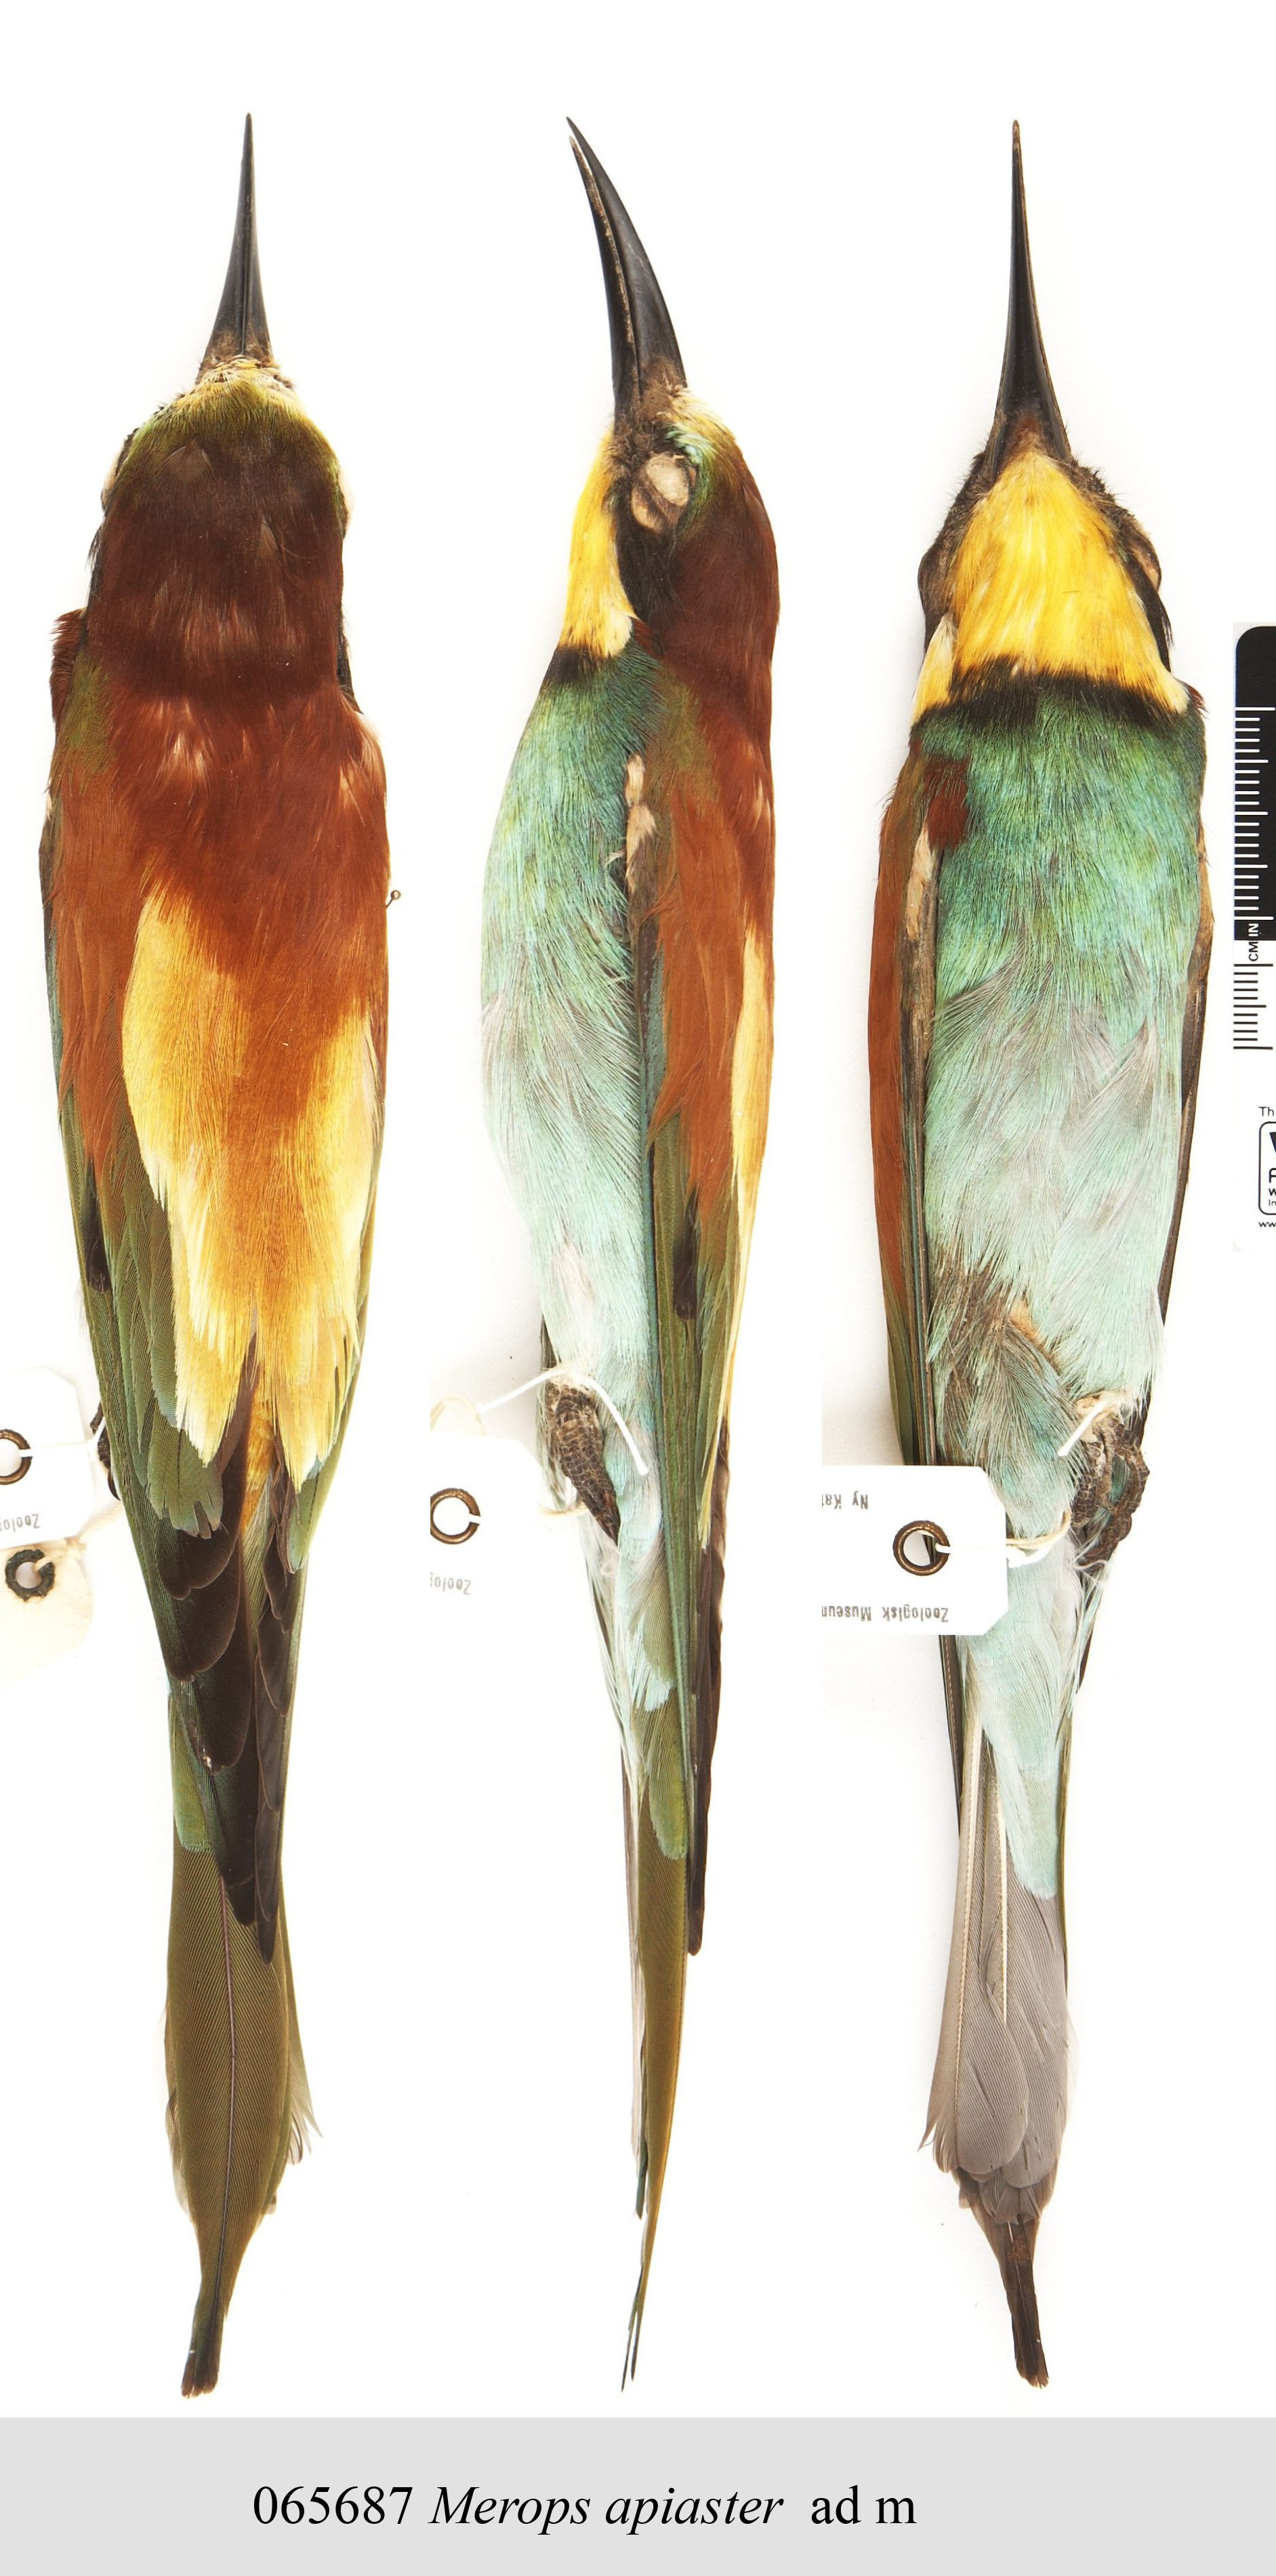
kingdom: Animalia
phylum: Chordata
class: Aves
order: Coraciiformes
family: Meropidae
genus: Merops
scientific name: Merops apiaster
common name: European bee-eater
